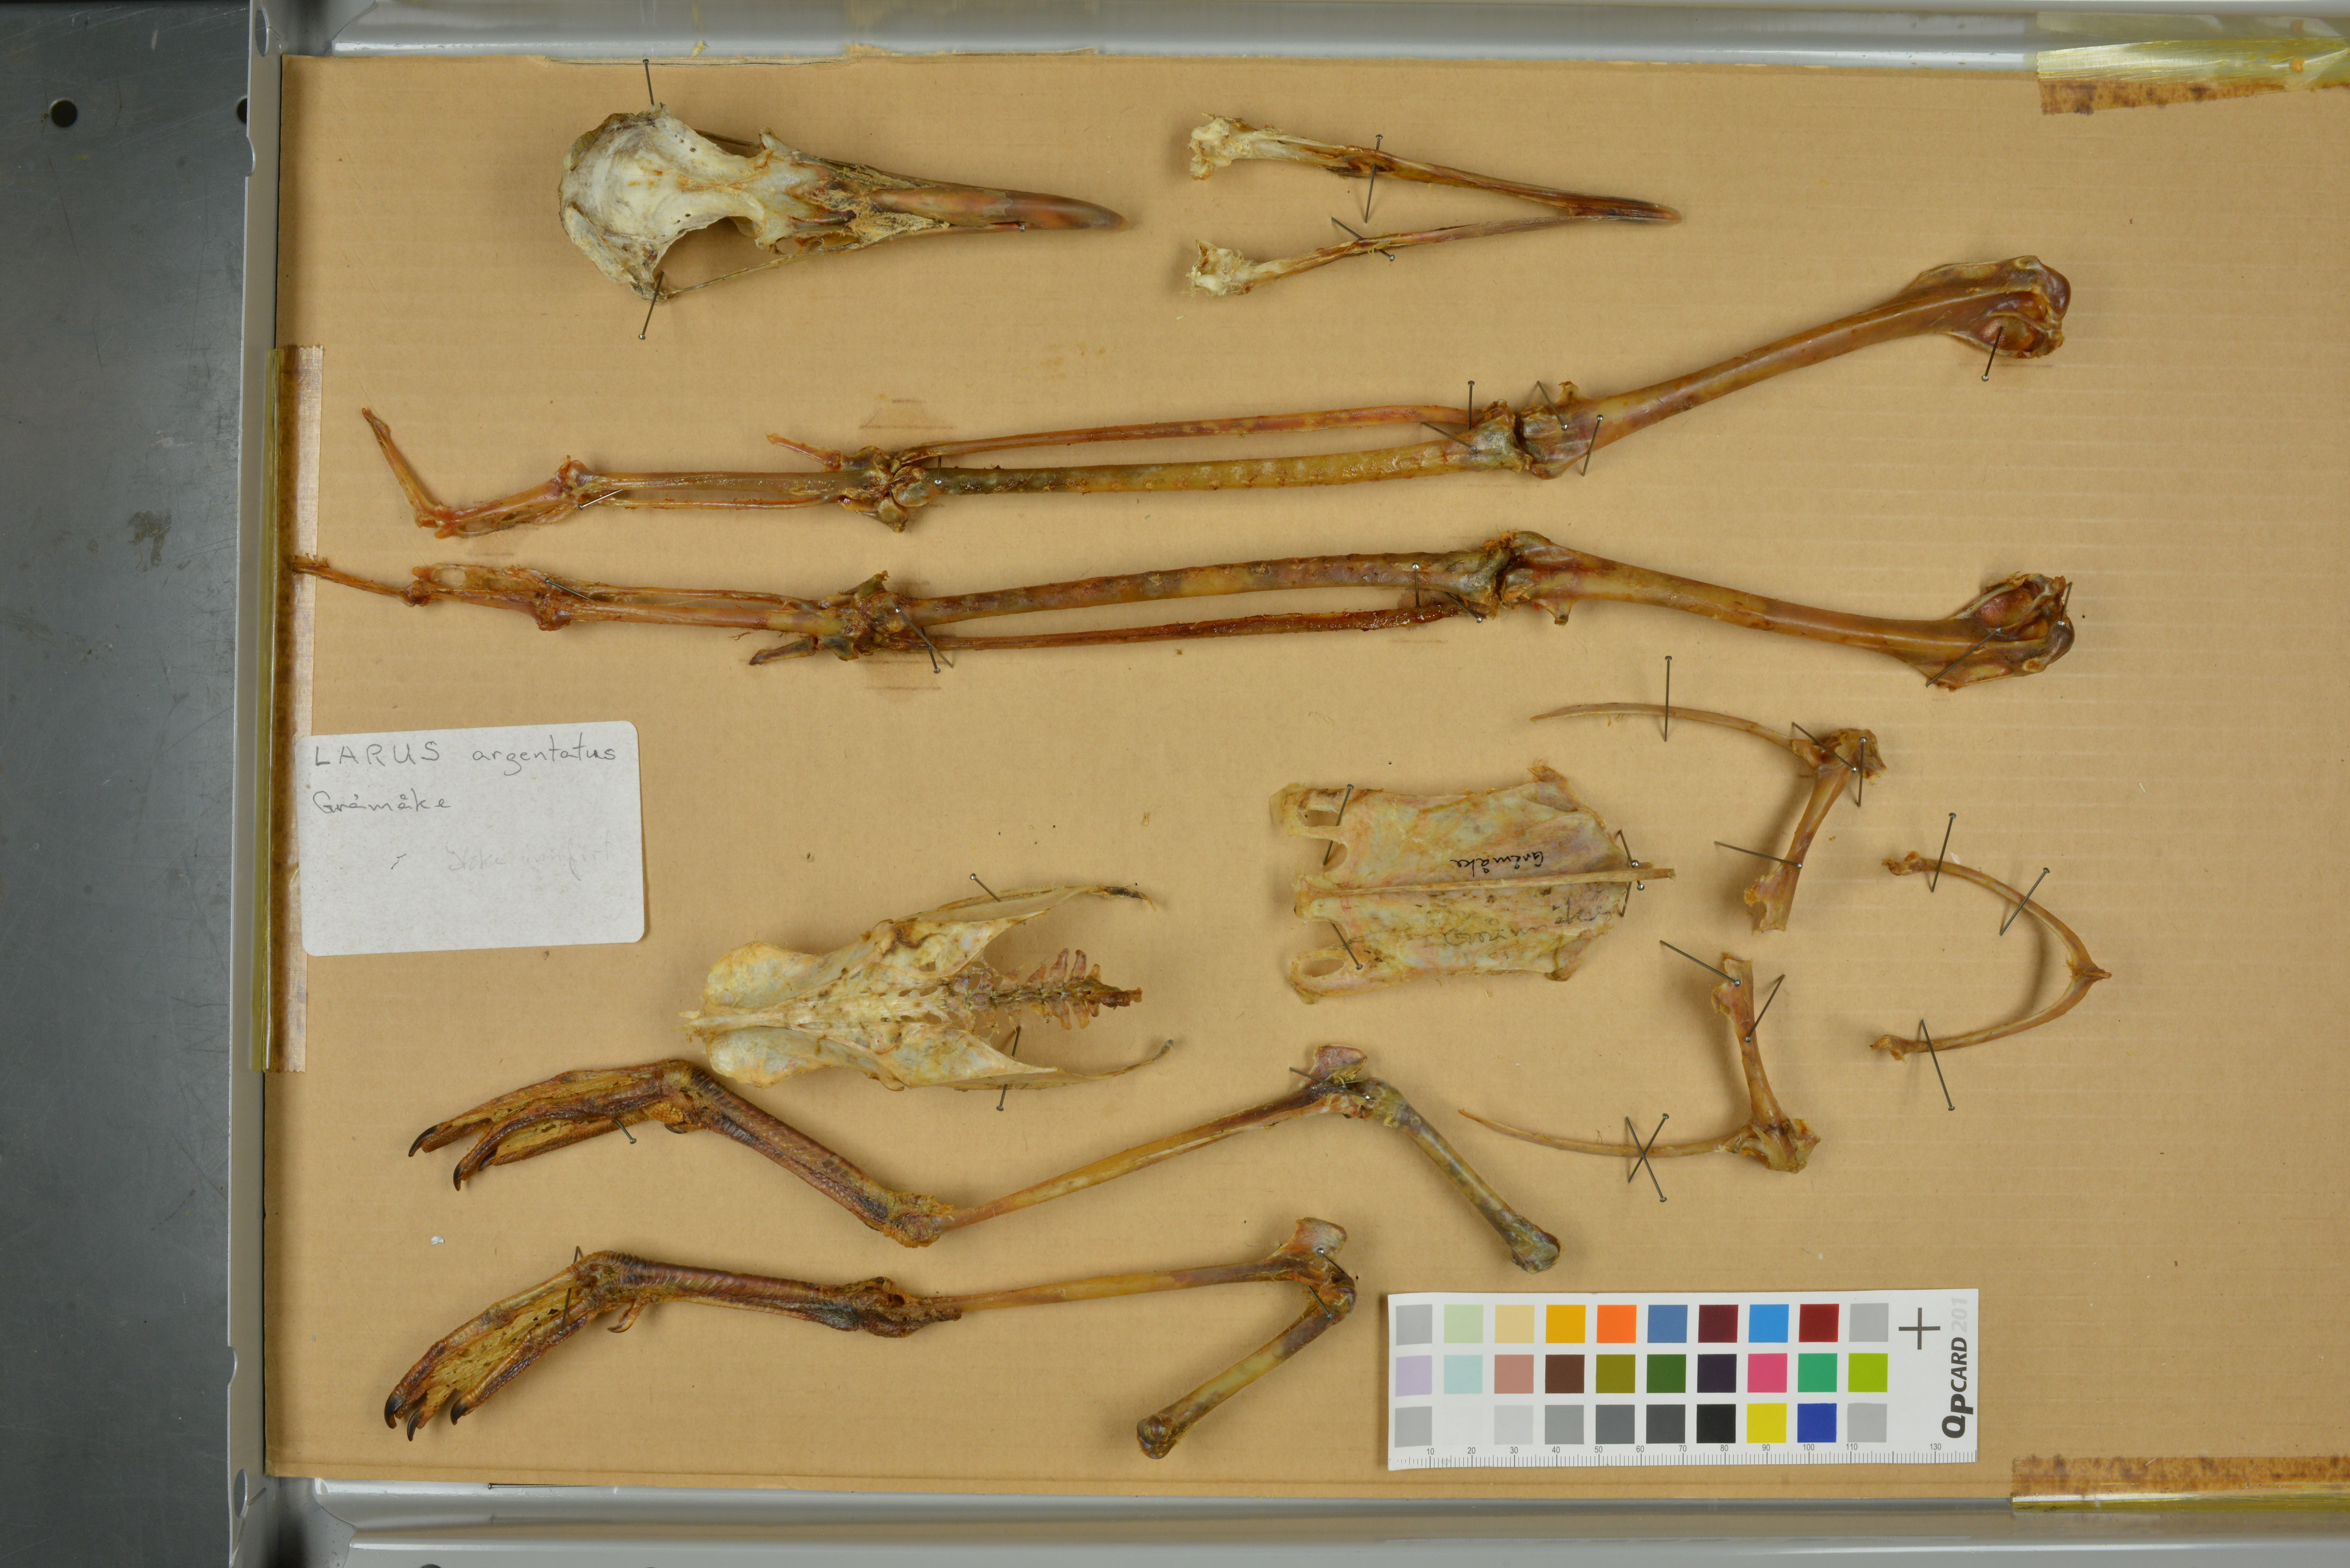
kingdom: Animalia
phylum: Chordata
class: Aves
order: Charadriiformes
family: Laridae
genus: Larus
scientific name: Larus argentatus
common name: Herring gull
